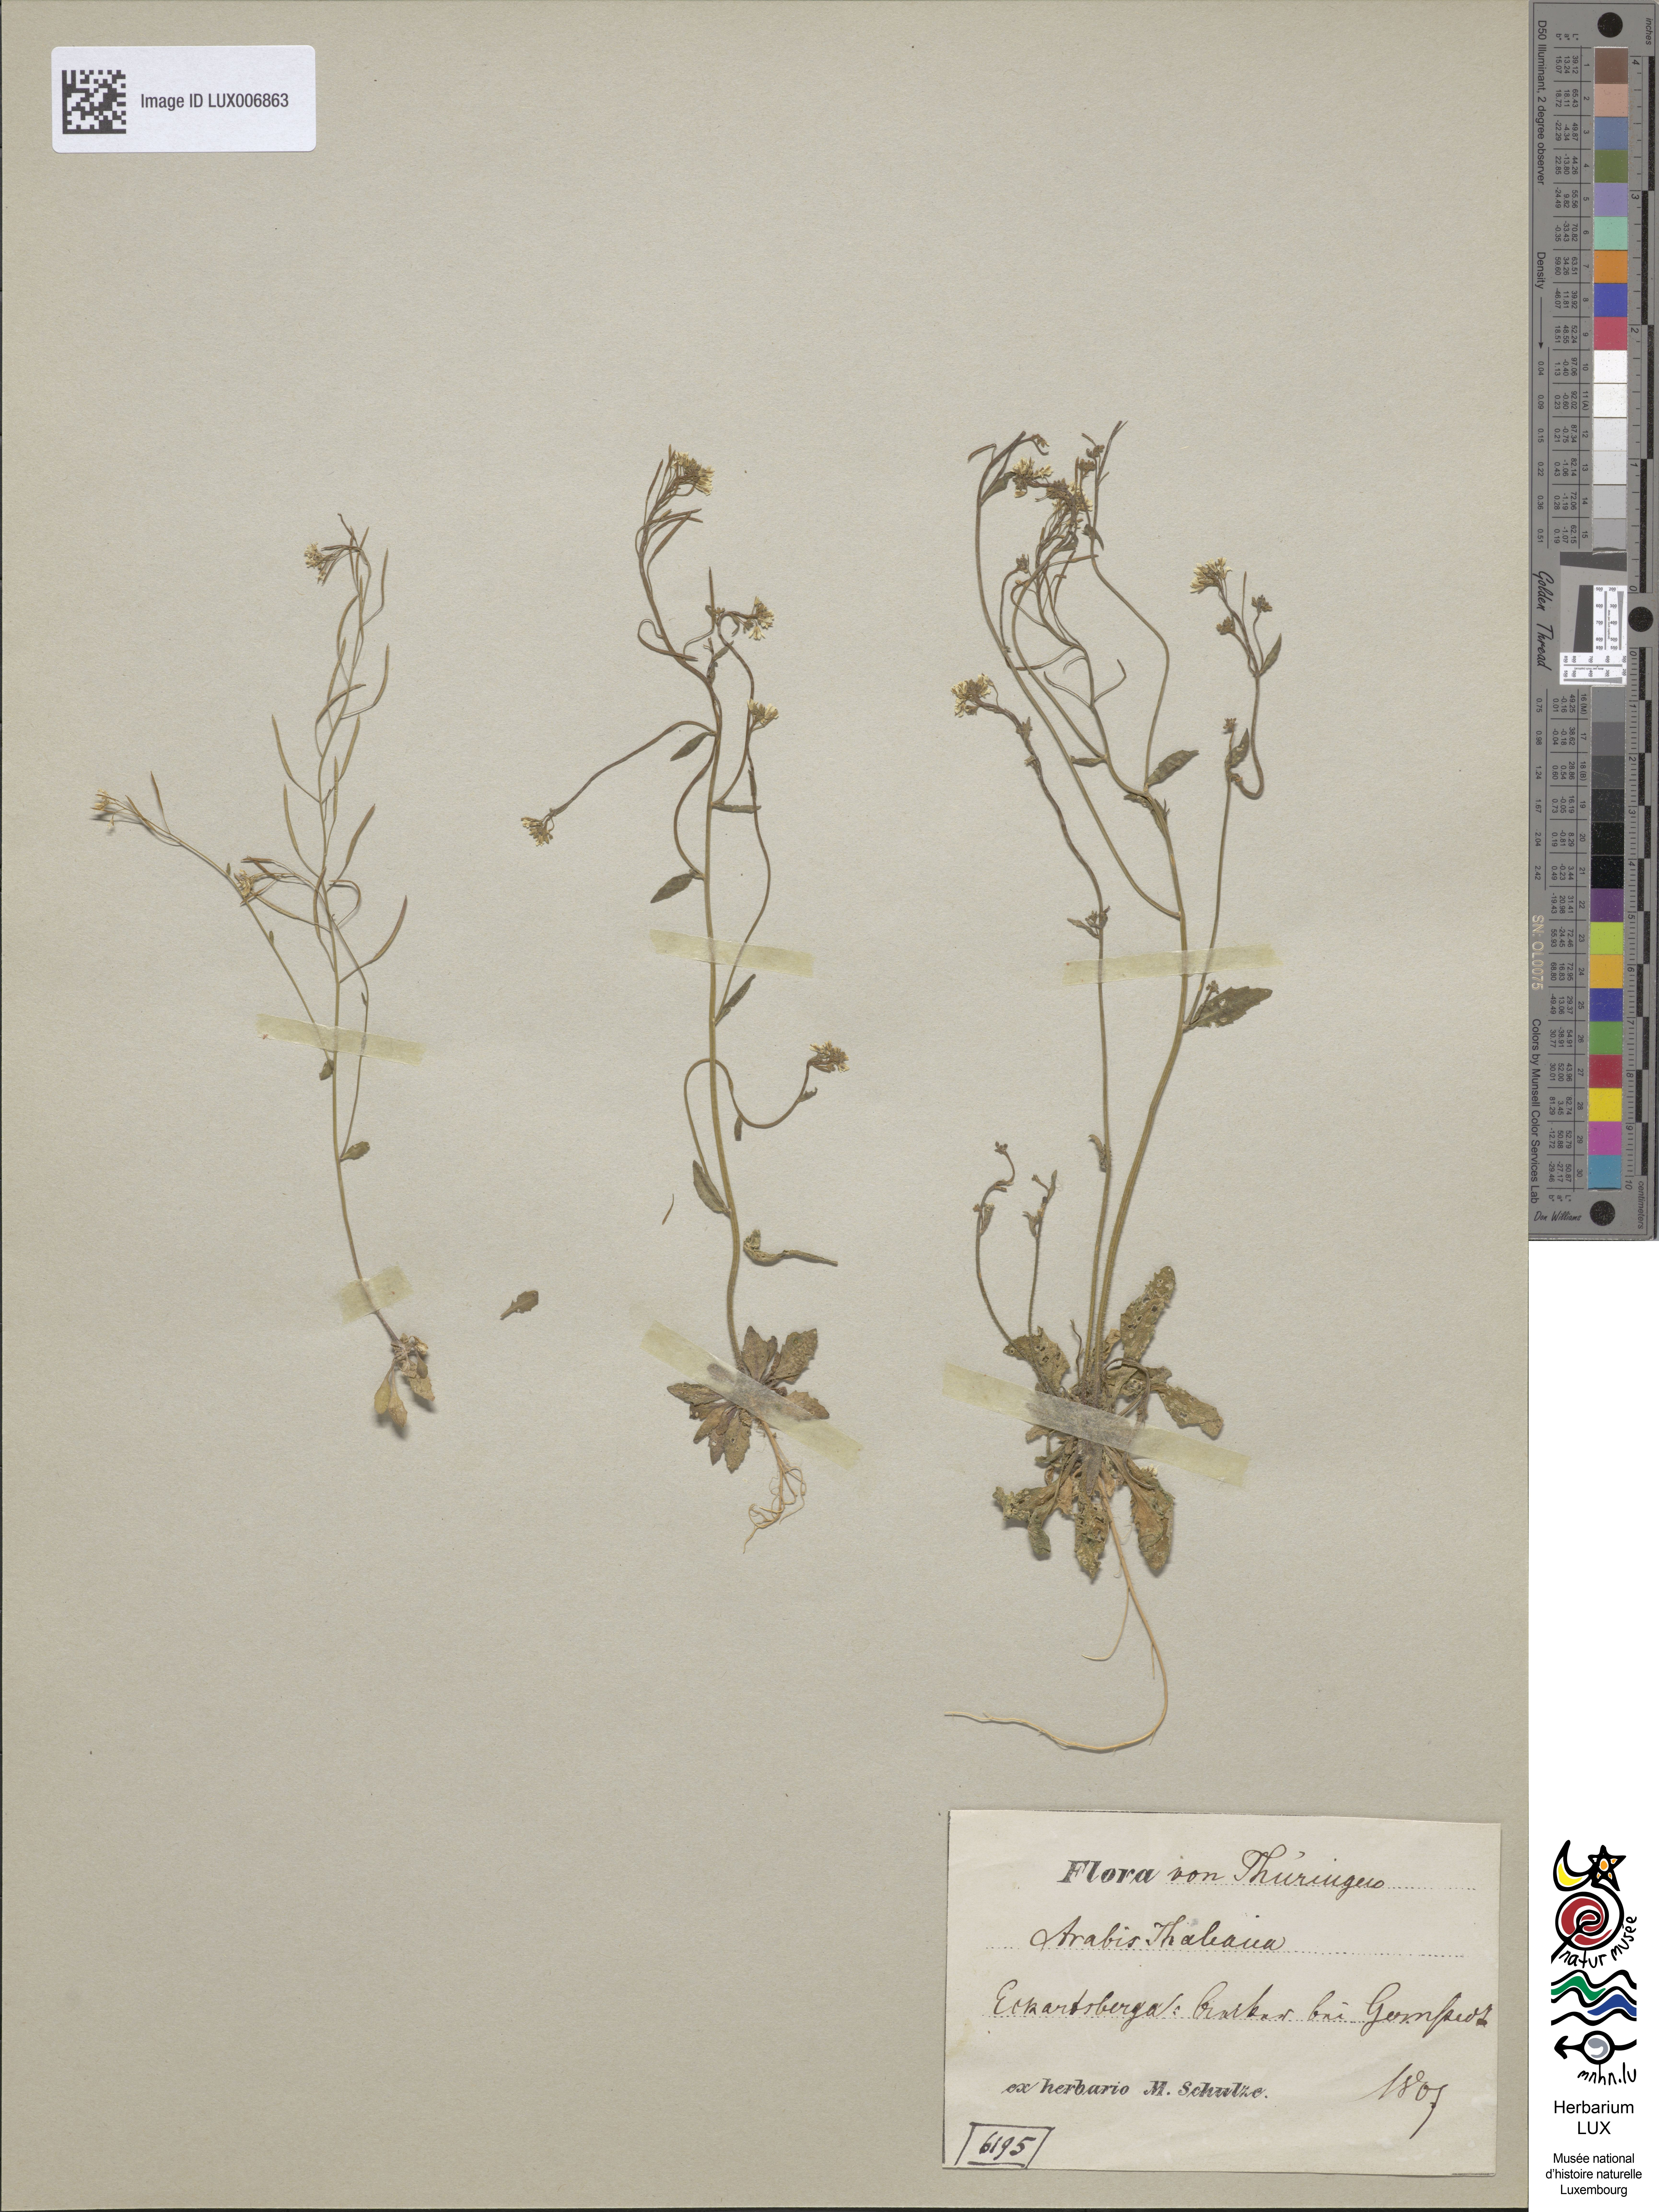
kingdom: Plantae
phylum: Tracheophyta
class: Magnoliopsida
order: Brassicales
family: Brassicaceae
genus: Arabidopsis
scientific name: Arabidopsis thaliana
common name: Thale cress
